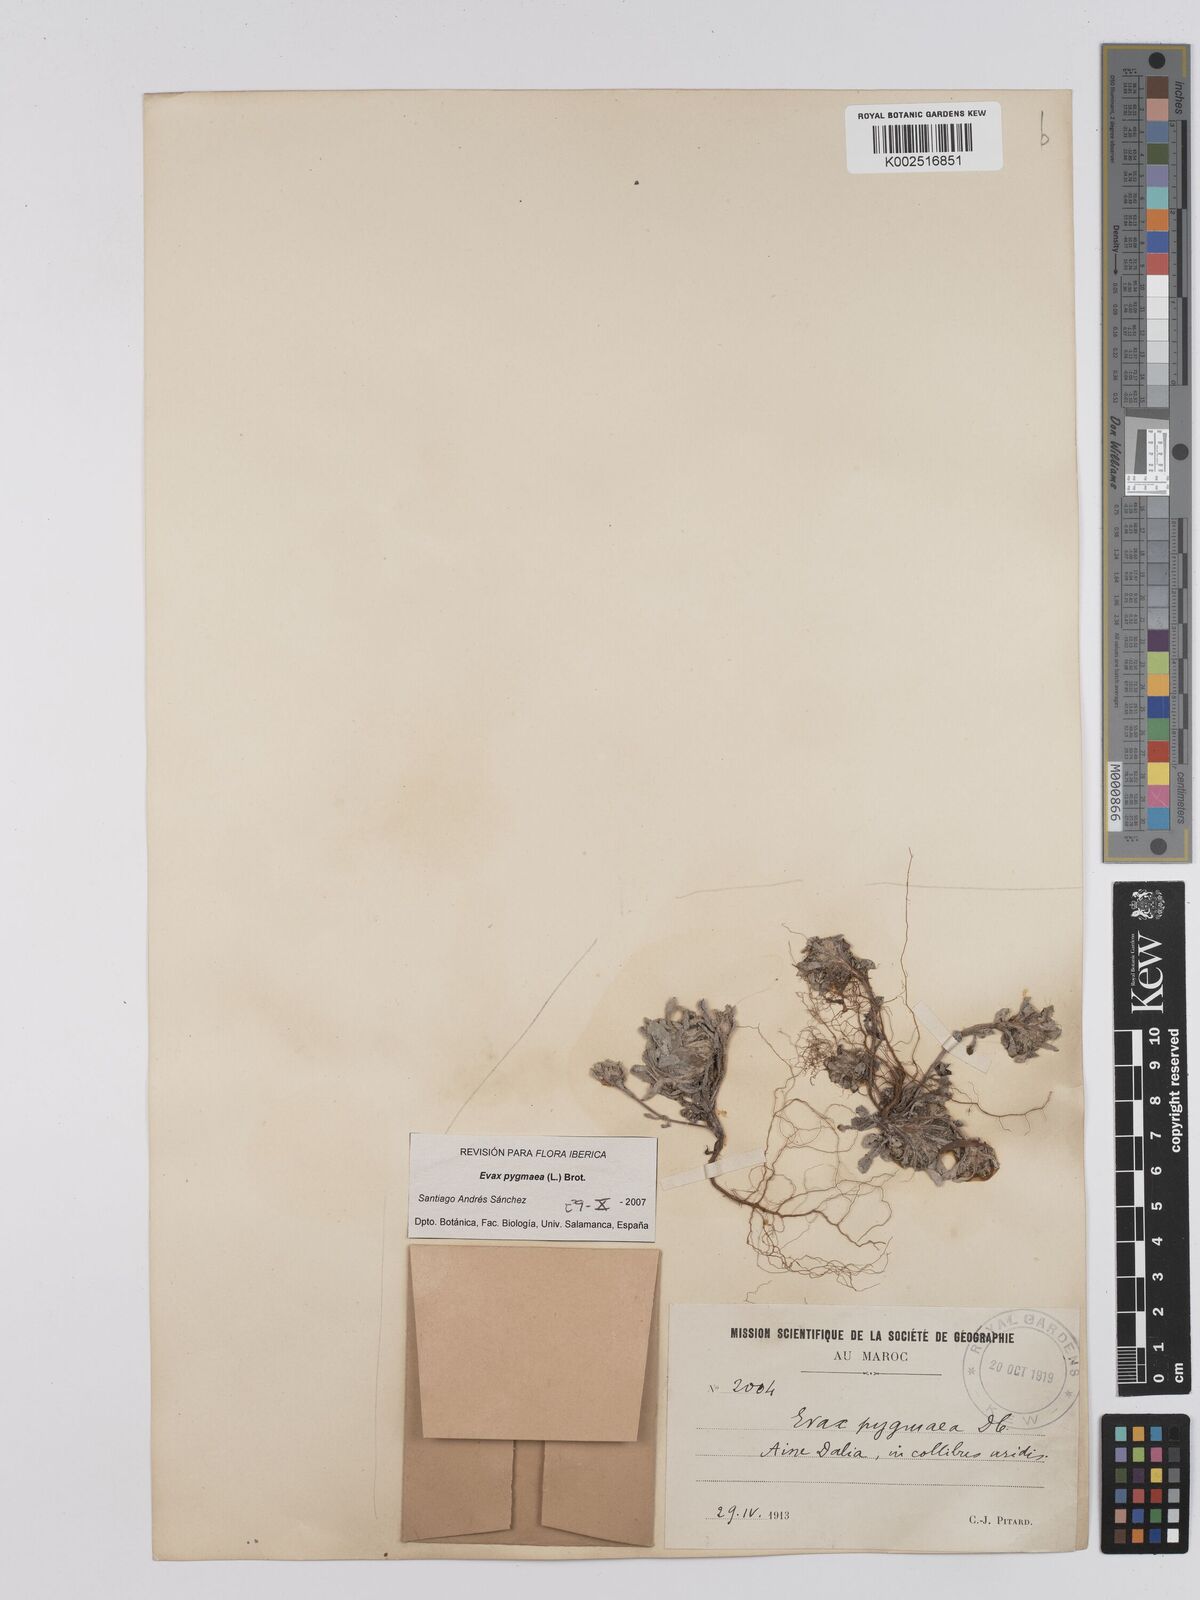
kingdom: Plantae
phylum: Tracheophyta
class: Magnoliopsida
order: Asterales
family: Asteraceae
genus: Filago
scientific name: Filago pygmaea
